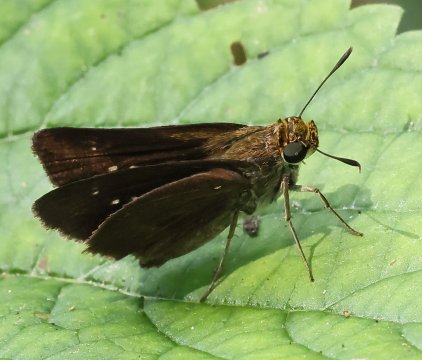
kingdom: Animalia
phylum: Arthropoda
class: Insecta
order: Lepidoptera
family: Hesperiidae
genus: Euphyes
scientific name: Euphyes vestris
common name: Dun Skipper
